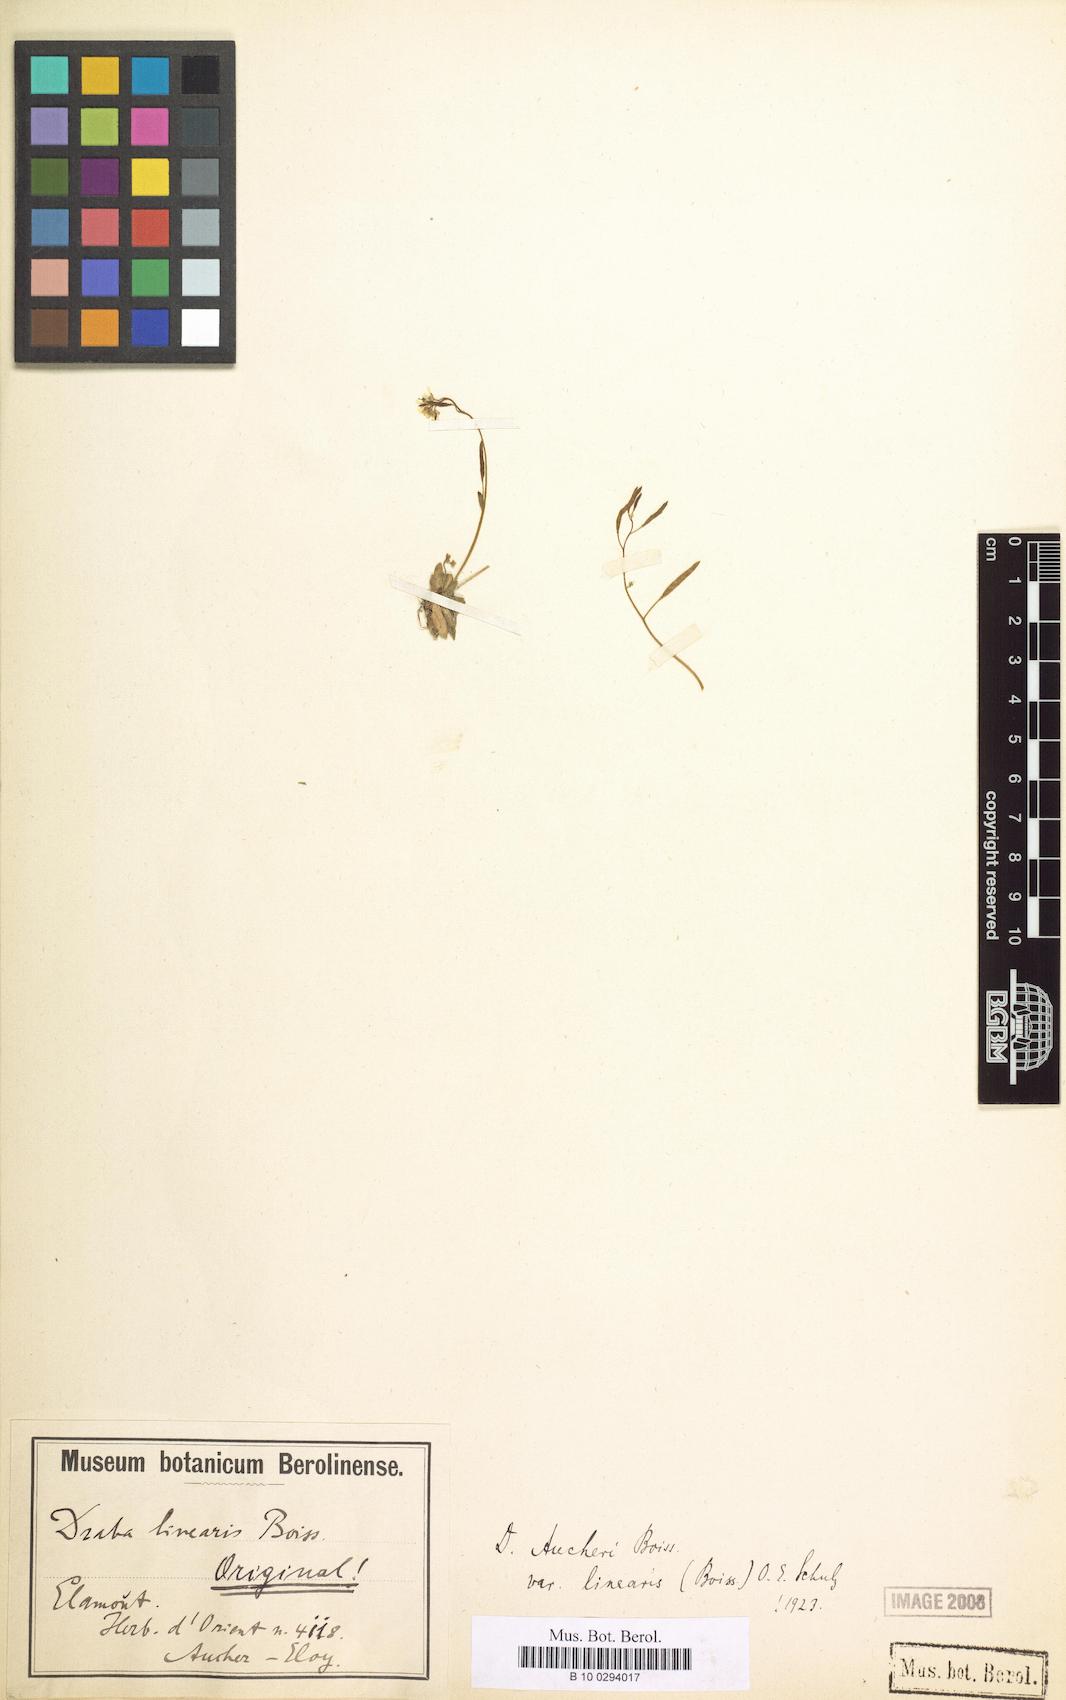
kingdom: Plantae
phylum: Tracheophyta
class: Magnoliopsida
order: Brassicales
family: Brassicaceae
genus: Draba
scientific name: Draba aucheri
